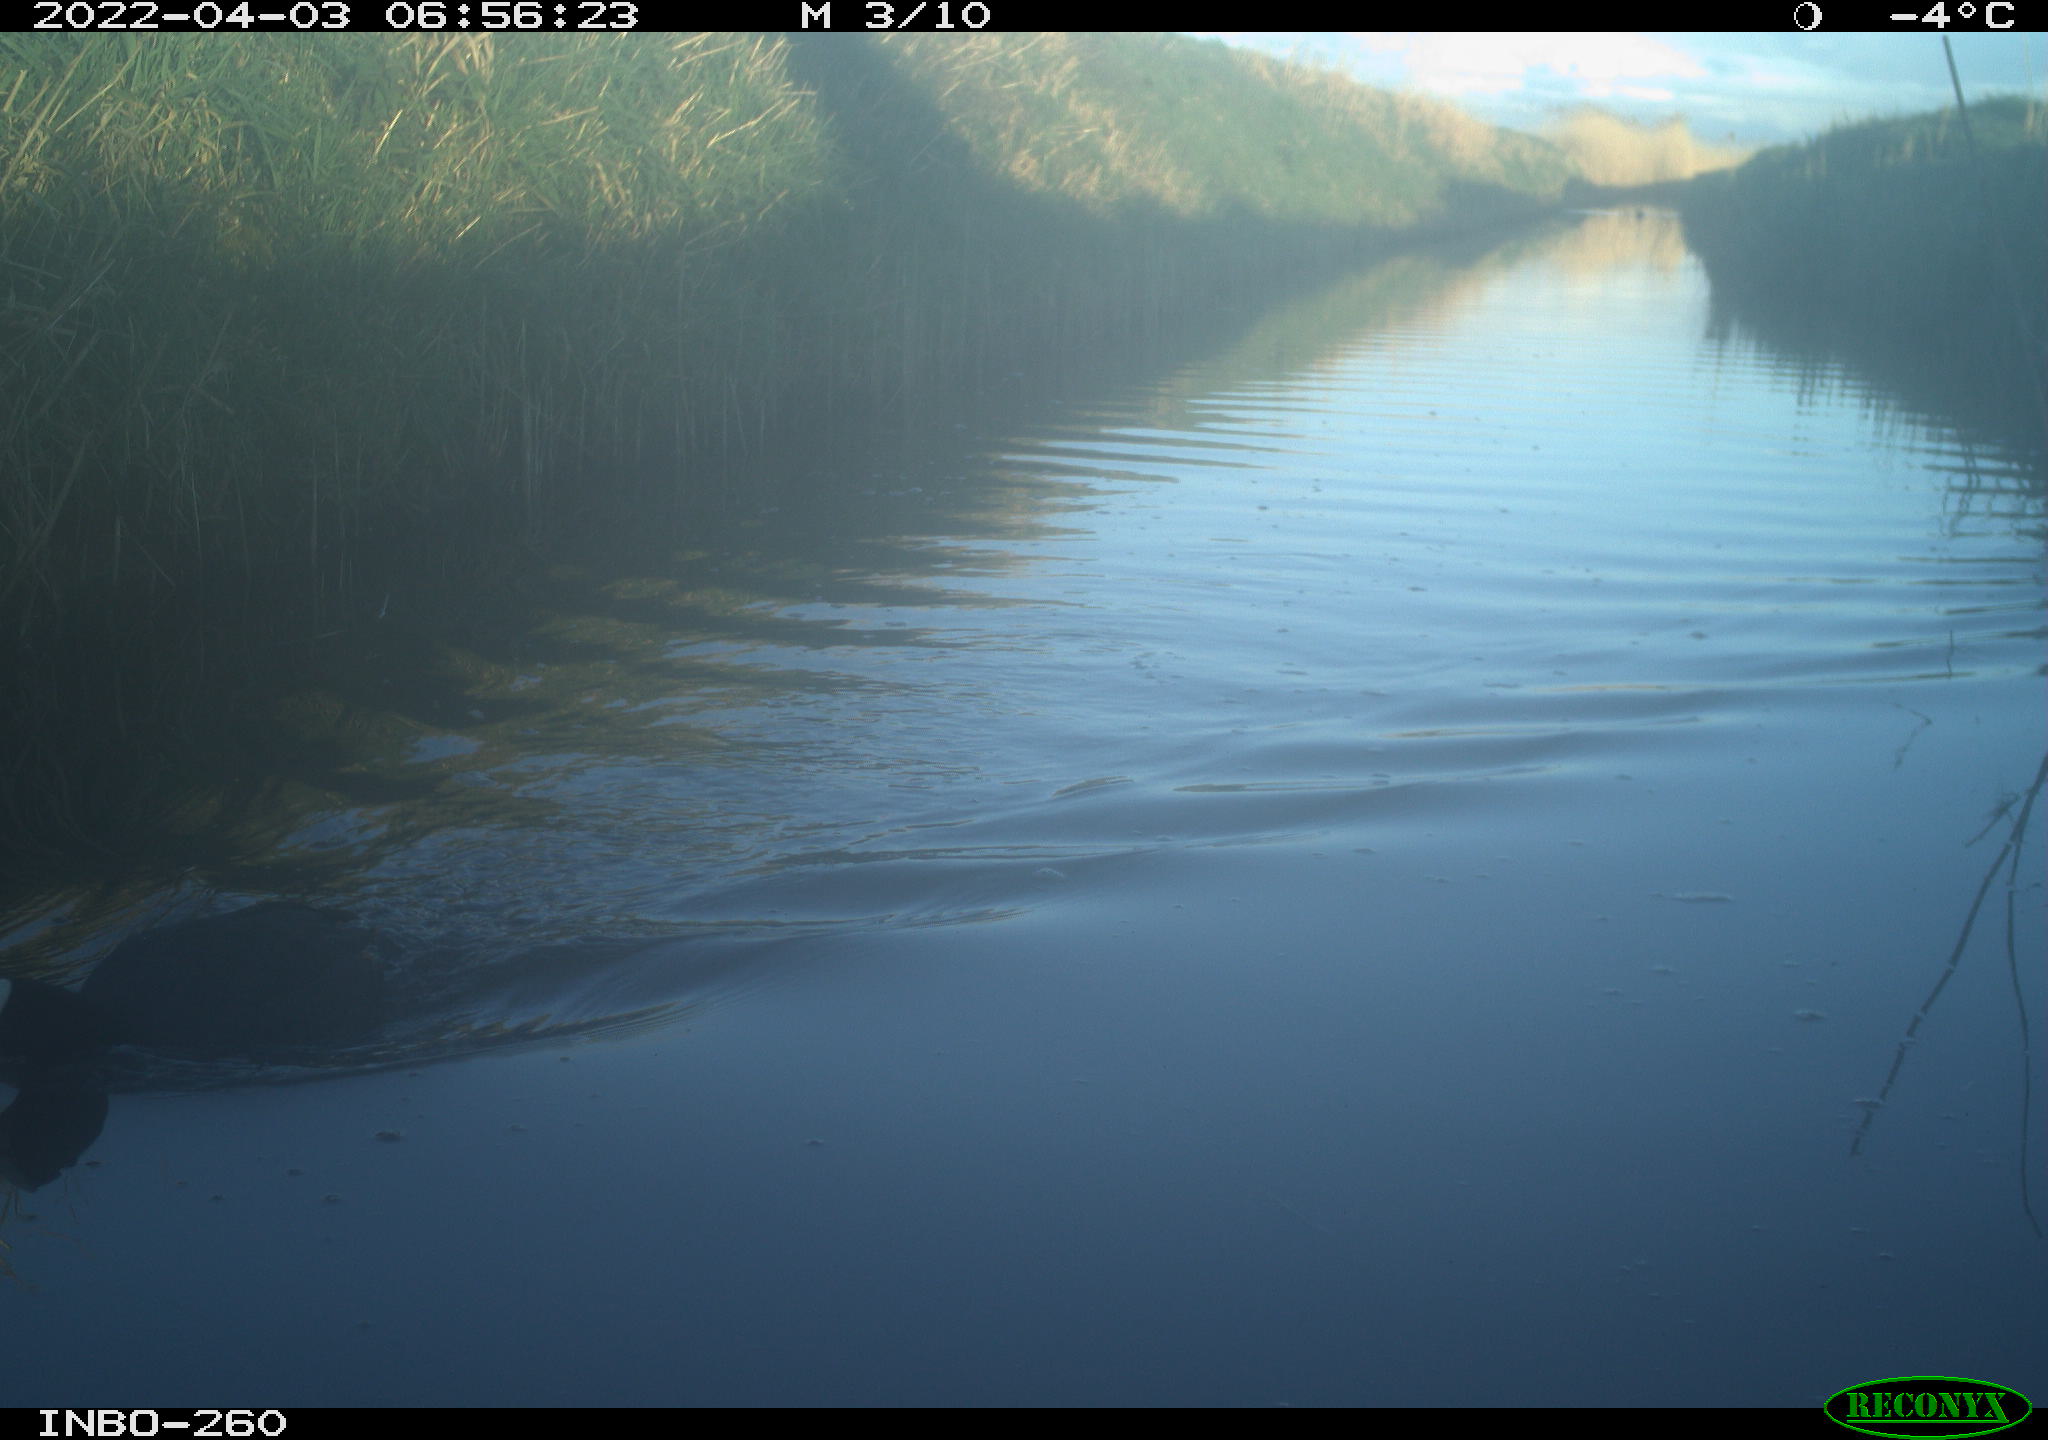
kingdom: Animalia
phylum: Chordata
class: Aves
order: Gruiformes
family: Rallidae
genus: Fulica
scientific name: Fulica atra
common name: Eurasian coot
